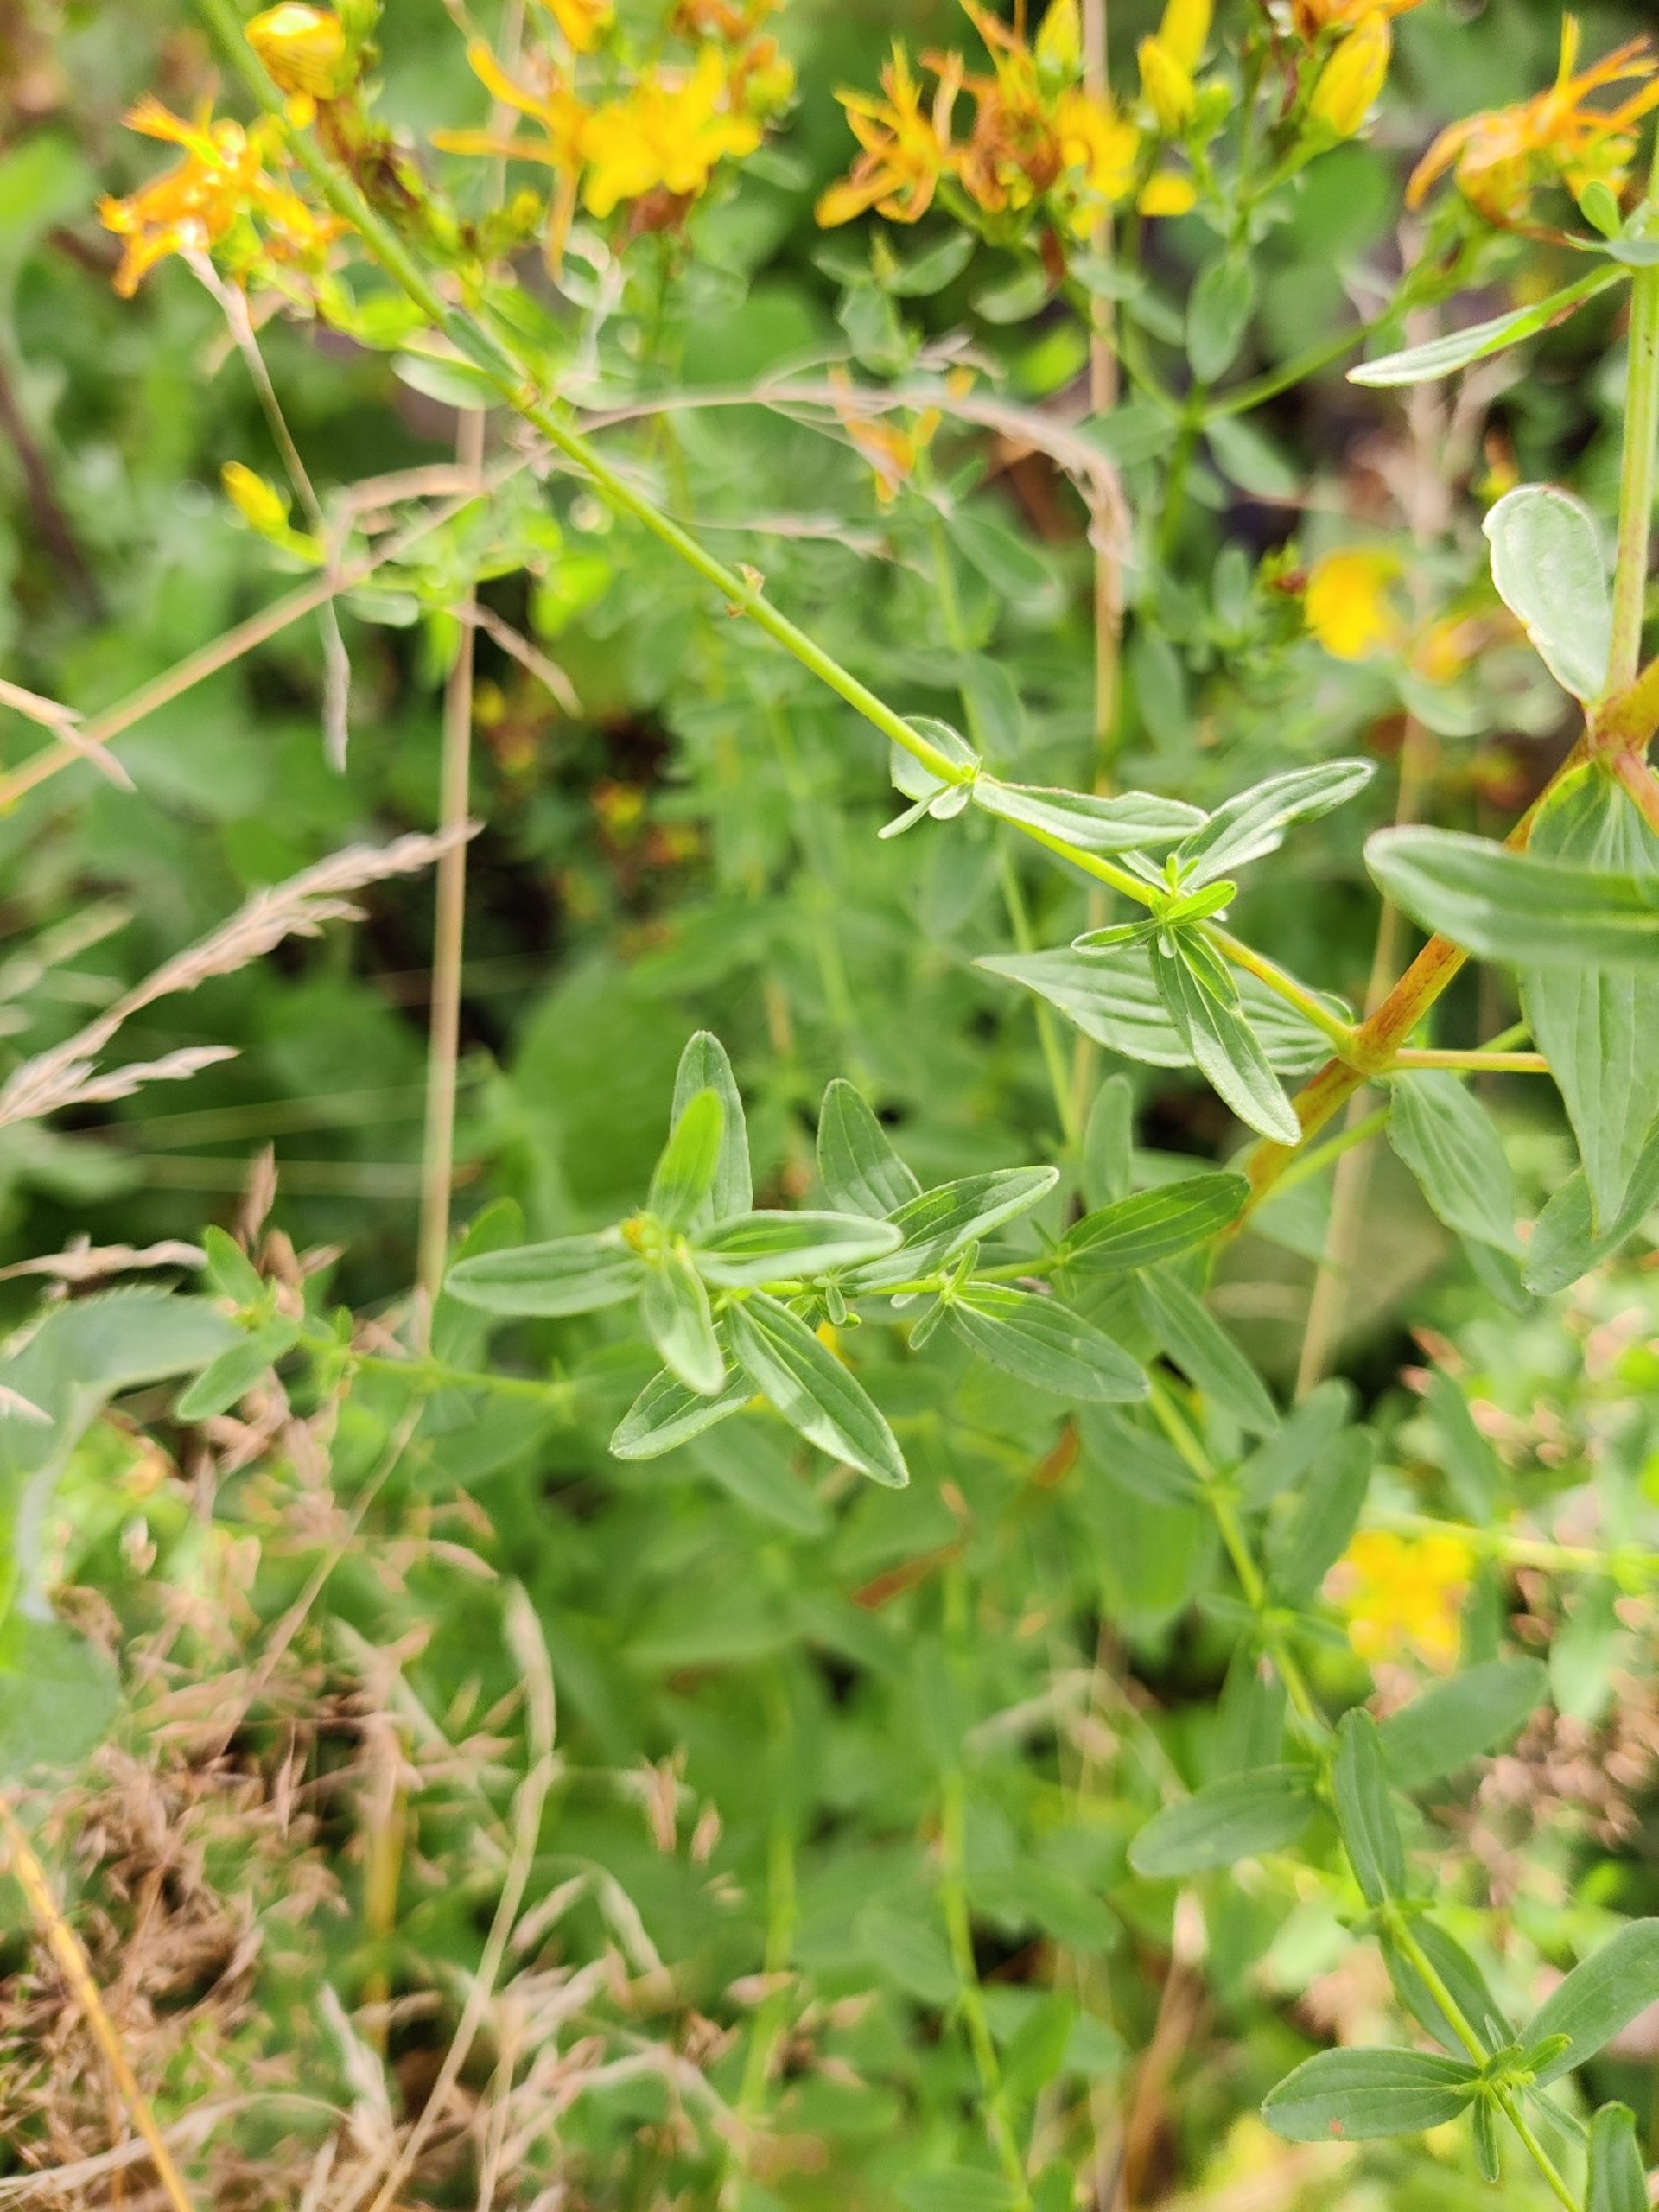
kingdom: Plantae
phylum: Tracheophyta
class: Magnoliopsida
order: Malpighiales
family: Hypericaceae
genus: Hypericum
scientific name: Hypericum perforatum
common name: Prikbladet perikon
